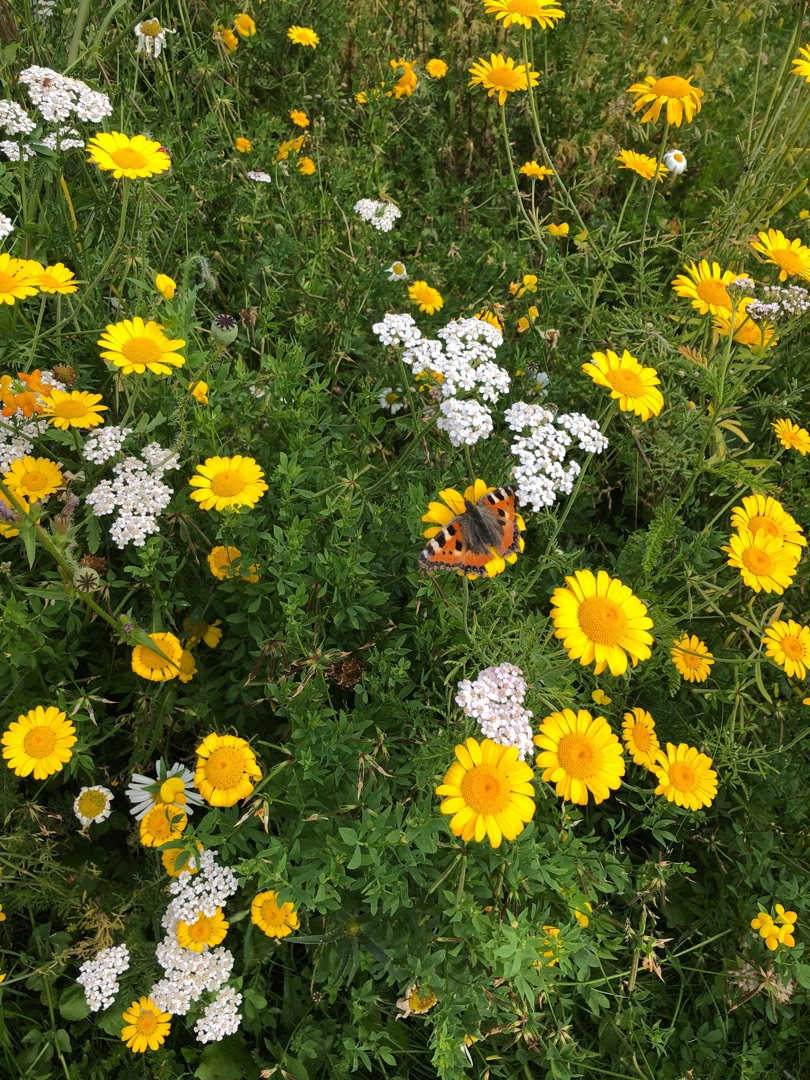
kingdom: Animalia
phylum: Arthropoda
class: Insecta
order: Lepidoptera
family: Nymphalidae
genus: Aglais
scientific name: Aglais urticae
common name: Nældens takvinge
